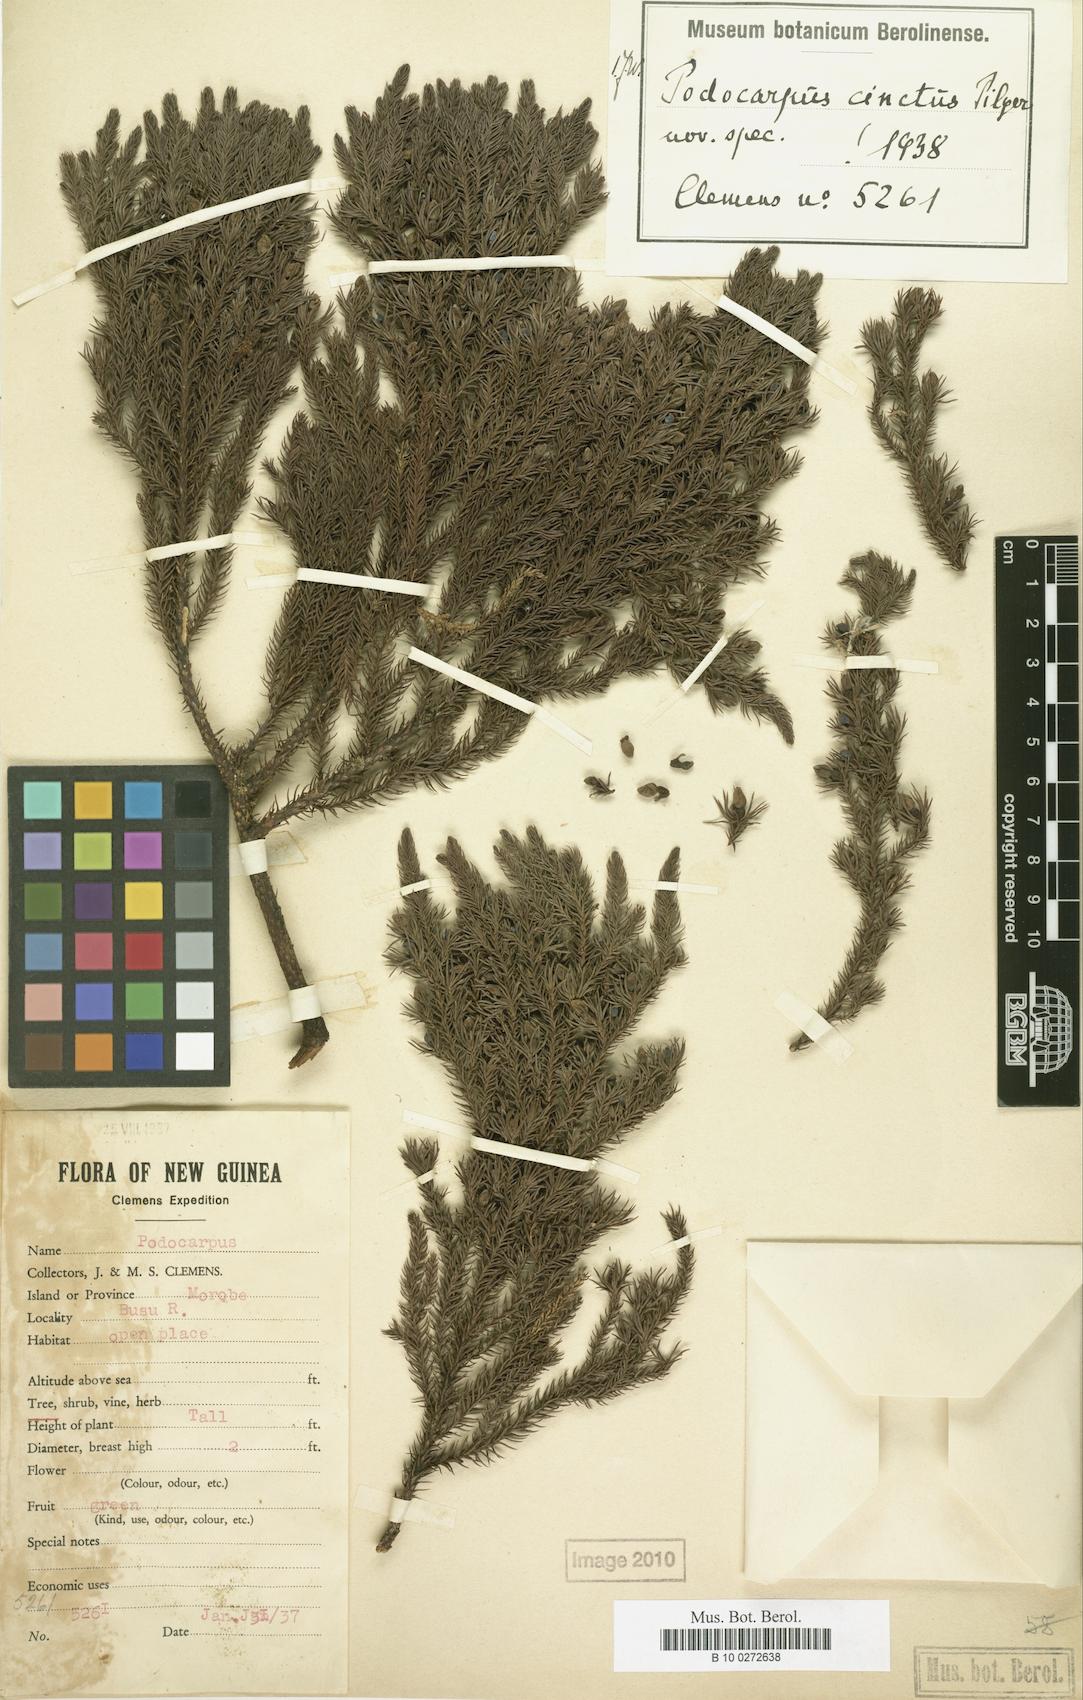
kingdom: Plantae
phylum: Tracheophyta
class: Pinopsida
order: Pinales
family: Podocarpaceae
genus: Dacrydium
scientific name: Dacrydium
